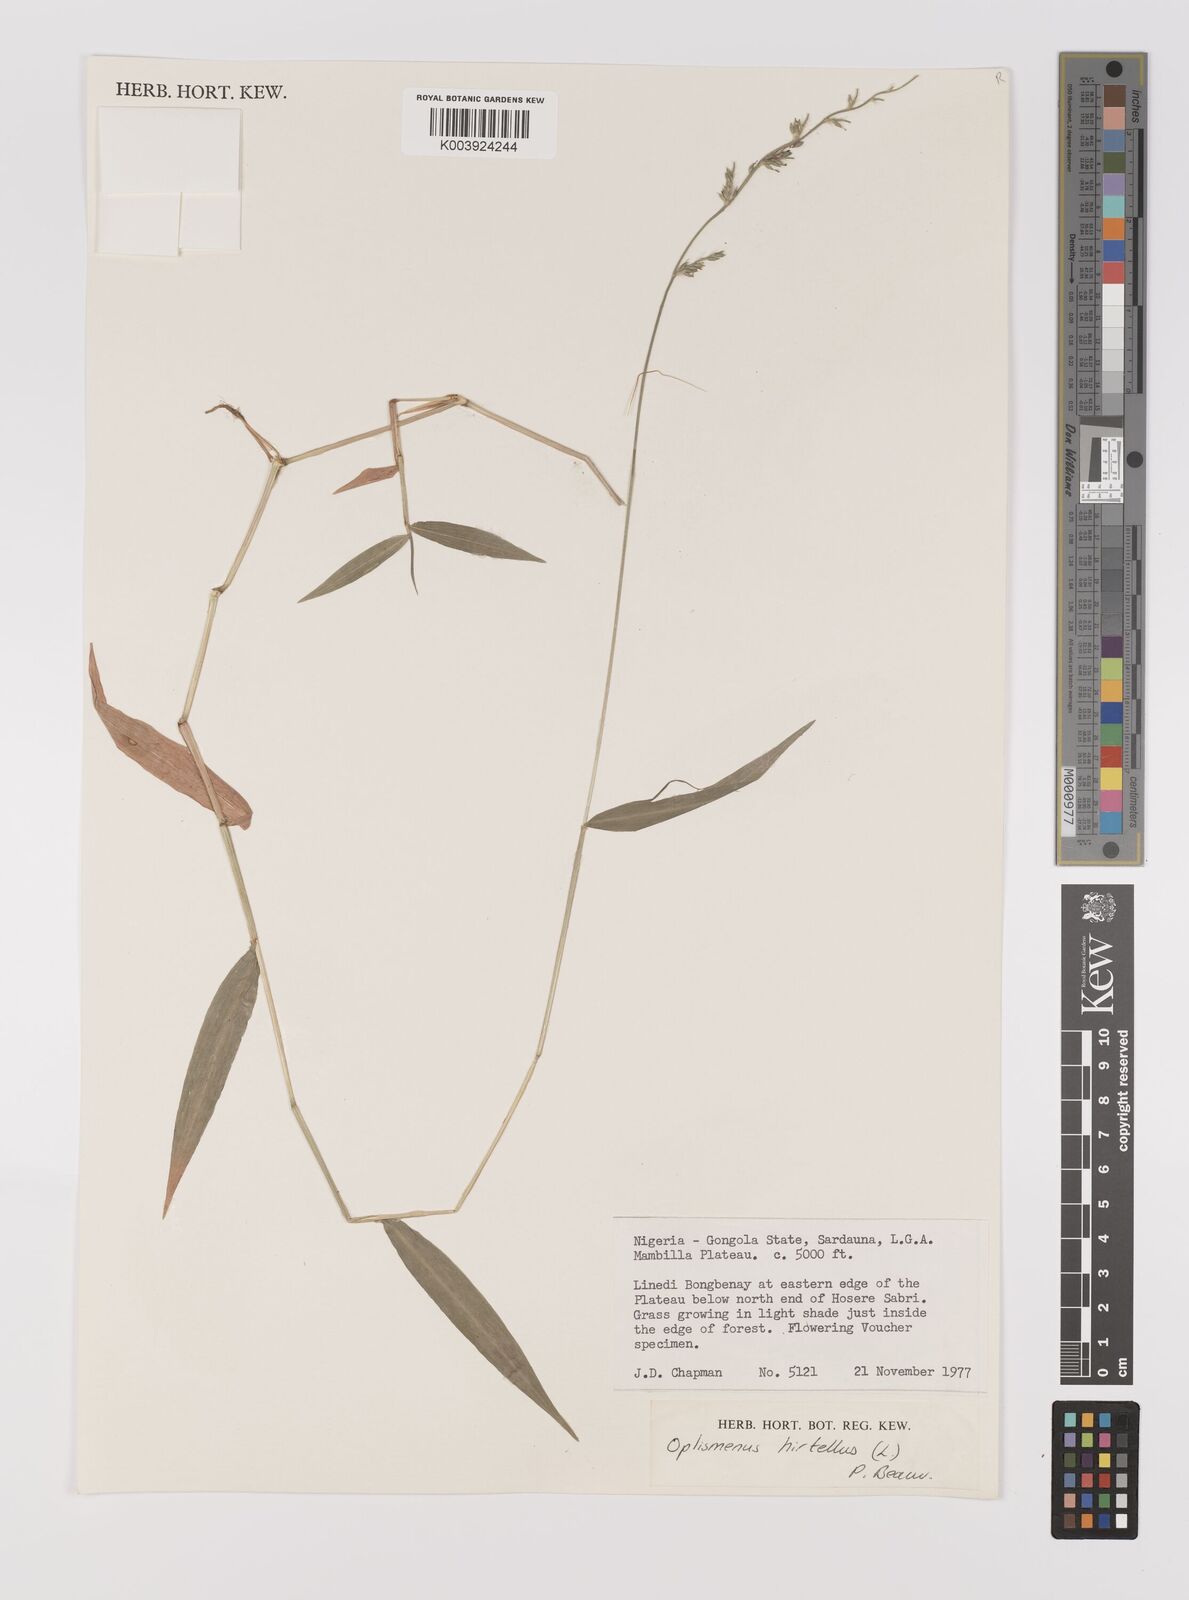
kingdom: Plantae
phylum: Tracheophyta
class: Liliopsida
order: Poales
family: Poaceae
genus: Oplismenus
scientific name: Oplismenus hirtellus
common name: Basketgrass
